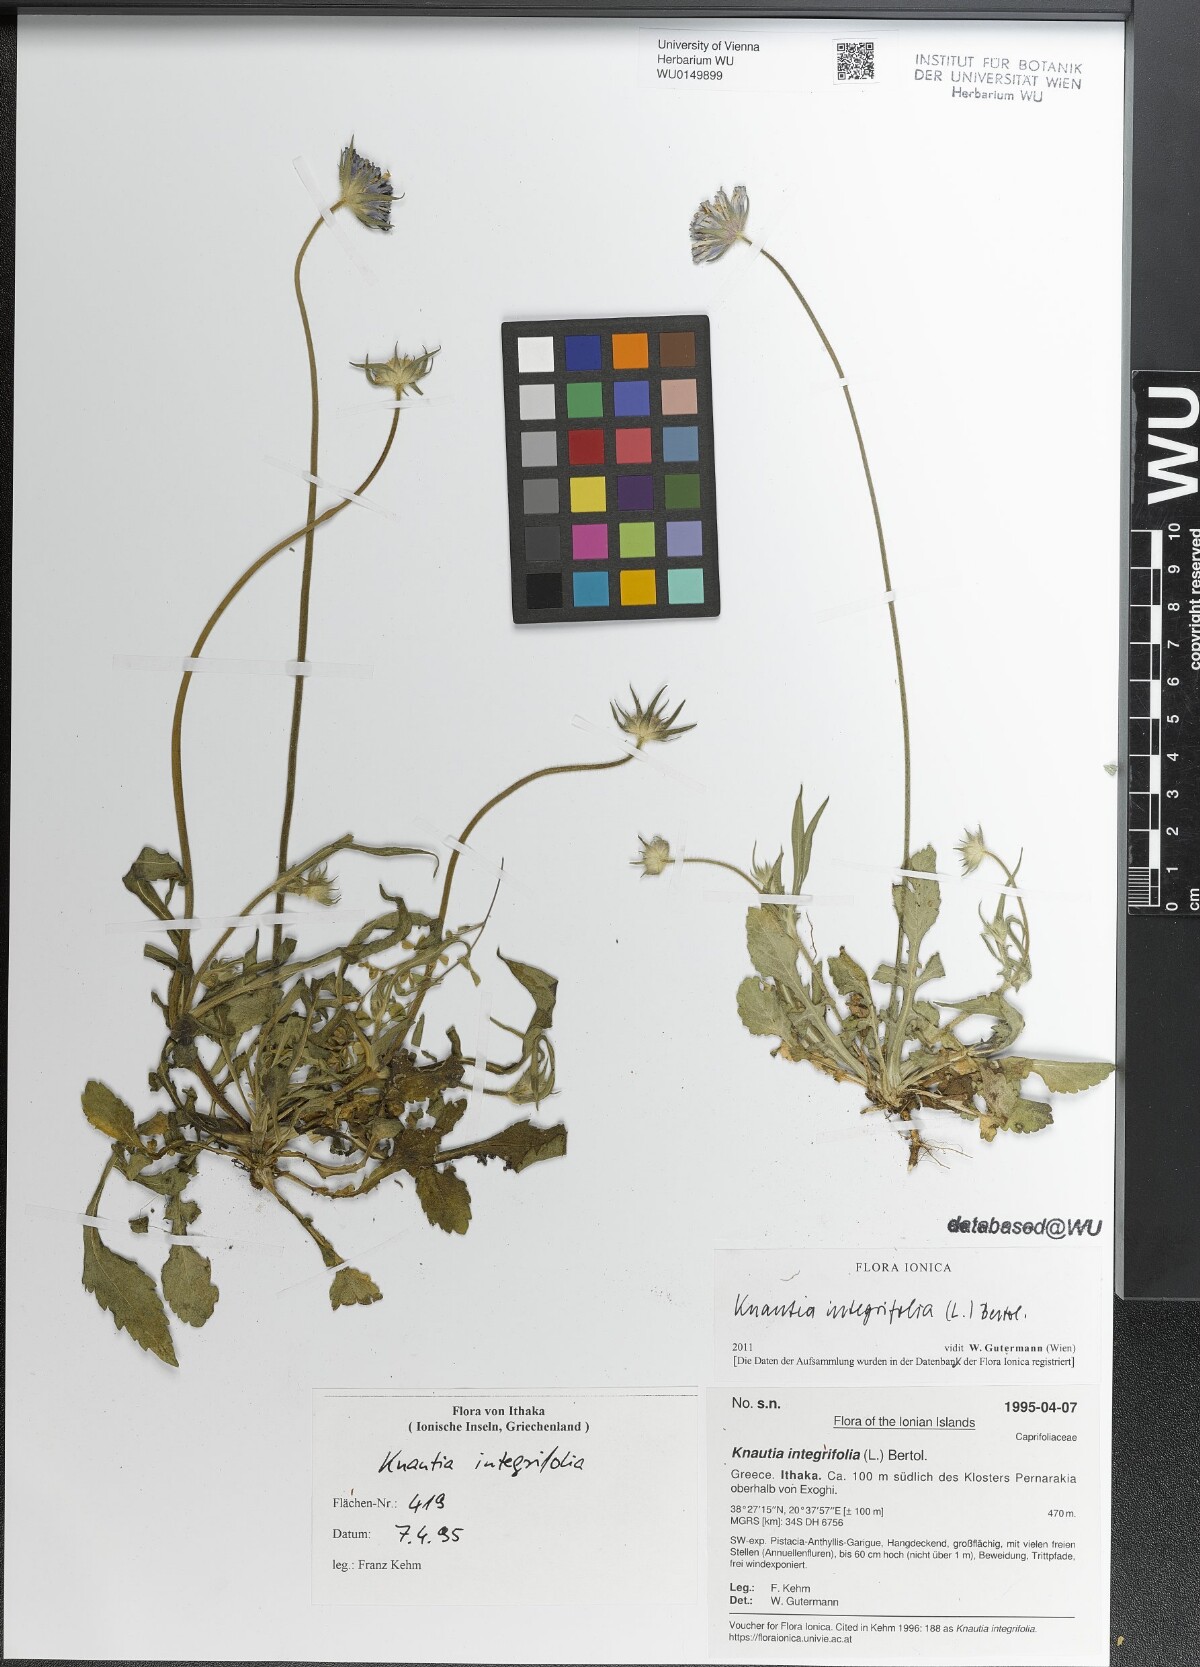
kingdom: Plantae
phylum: Tracheophyta
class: Magnoliopsida
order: Dipsacales
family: Caprifoliaceae
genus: Knautia
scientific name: Knautia integrifolia
